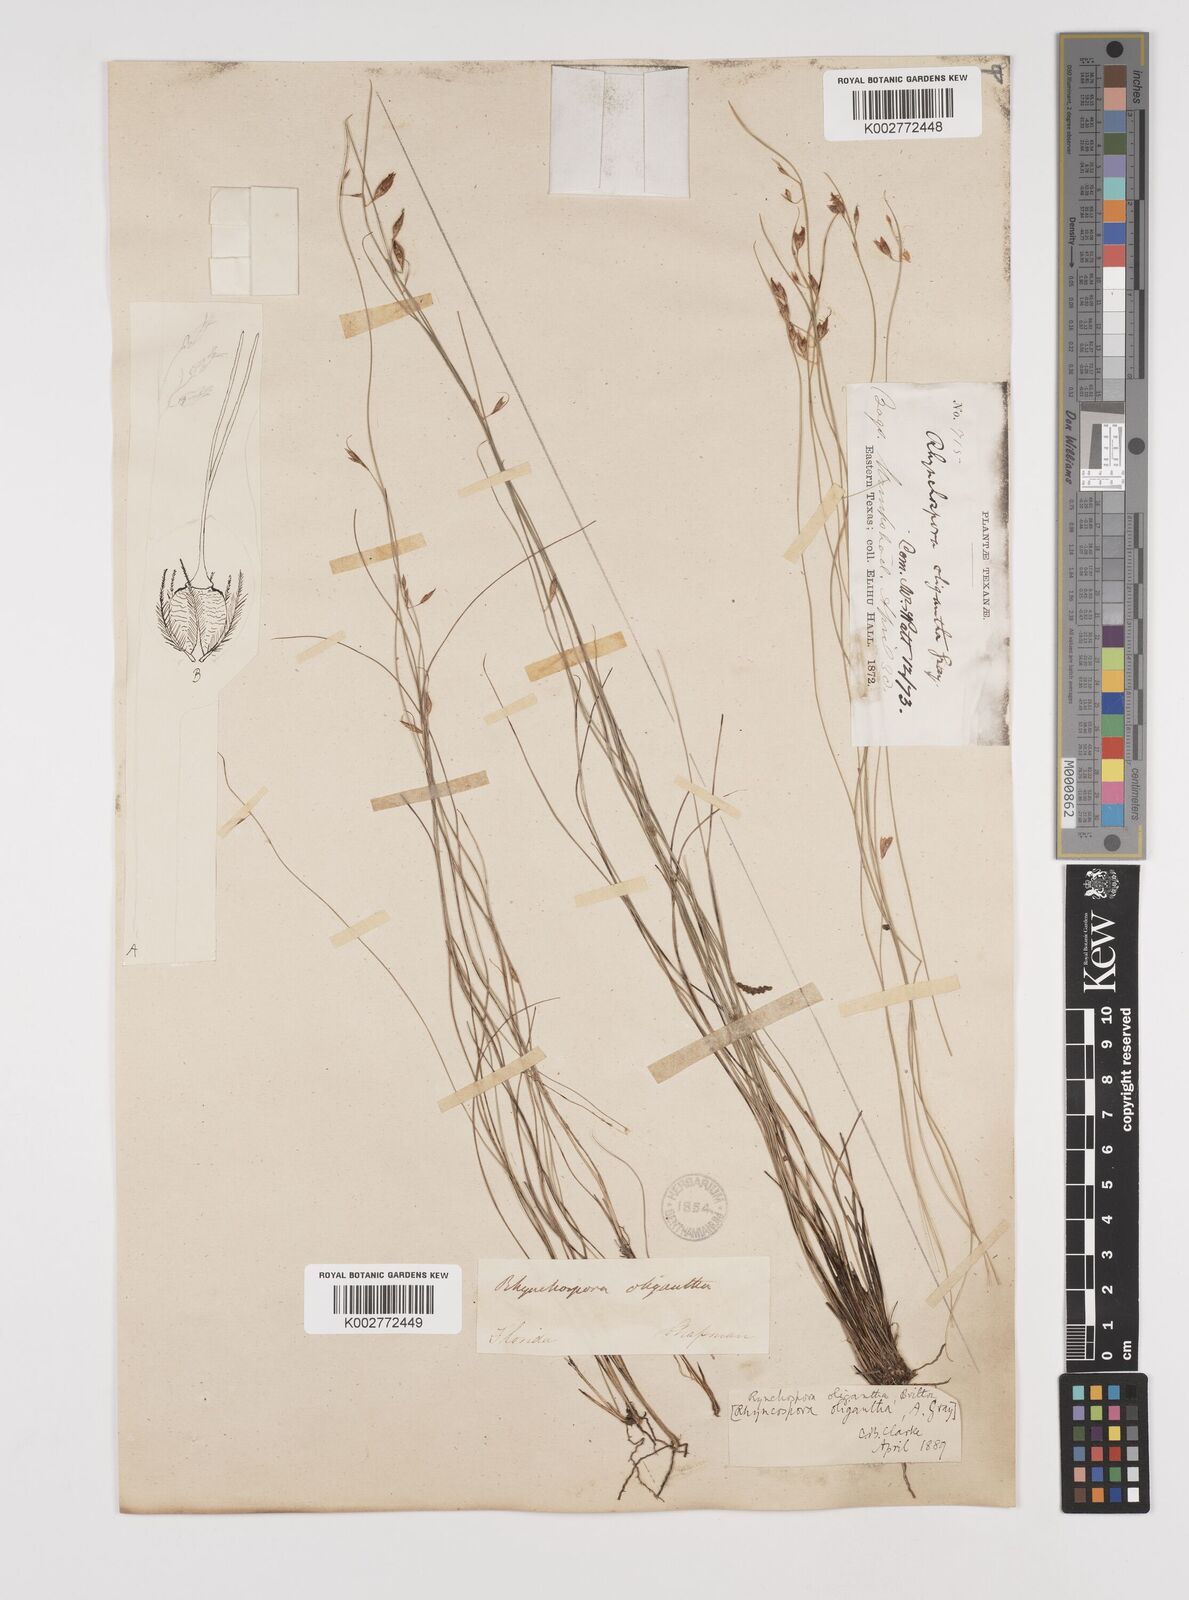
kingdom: Plantae
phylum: Tracheophyta
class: Liliopsida
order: Poales
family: Cyperaceae
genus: Rhynchospora
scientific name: Rhynchospora oligantha
